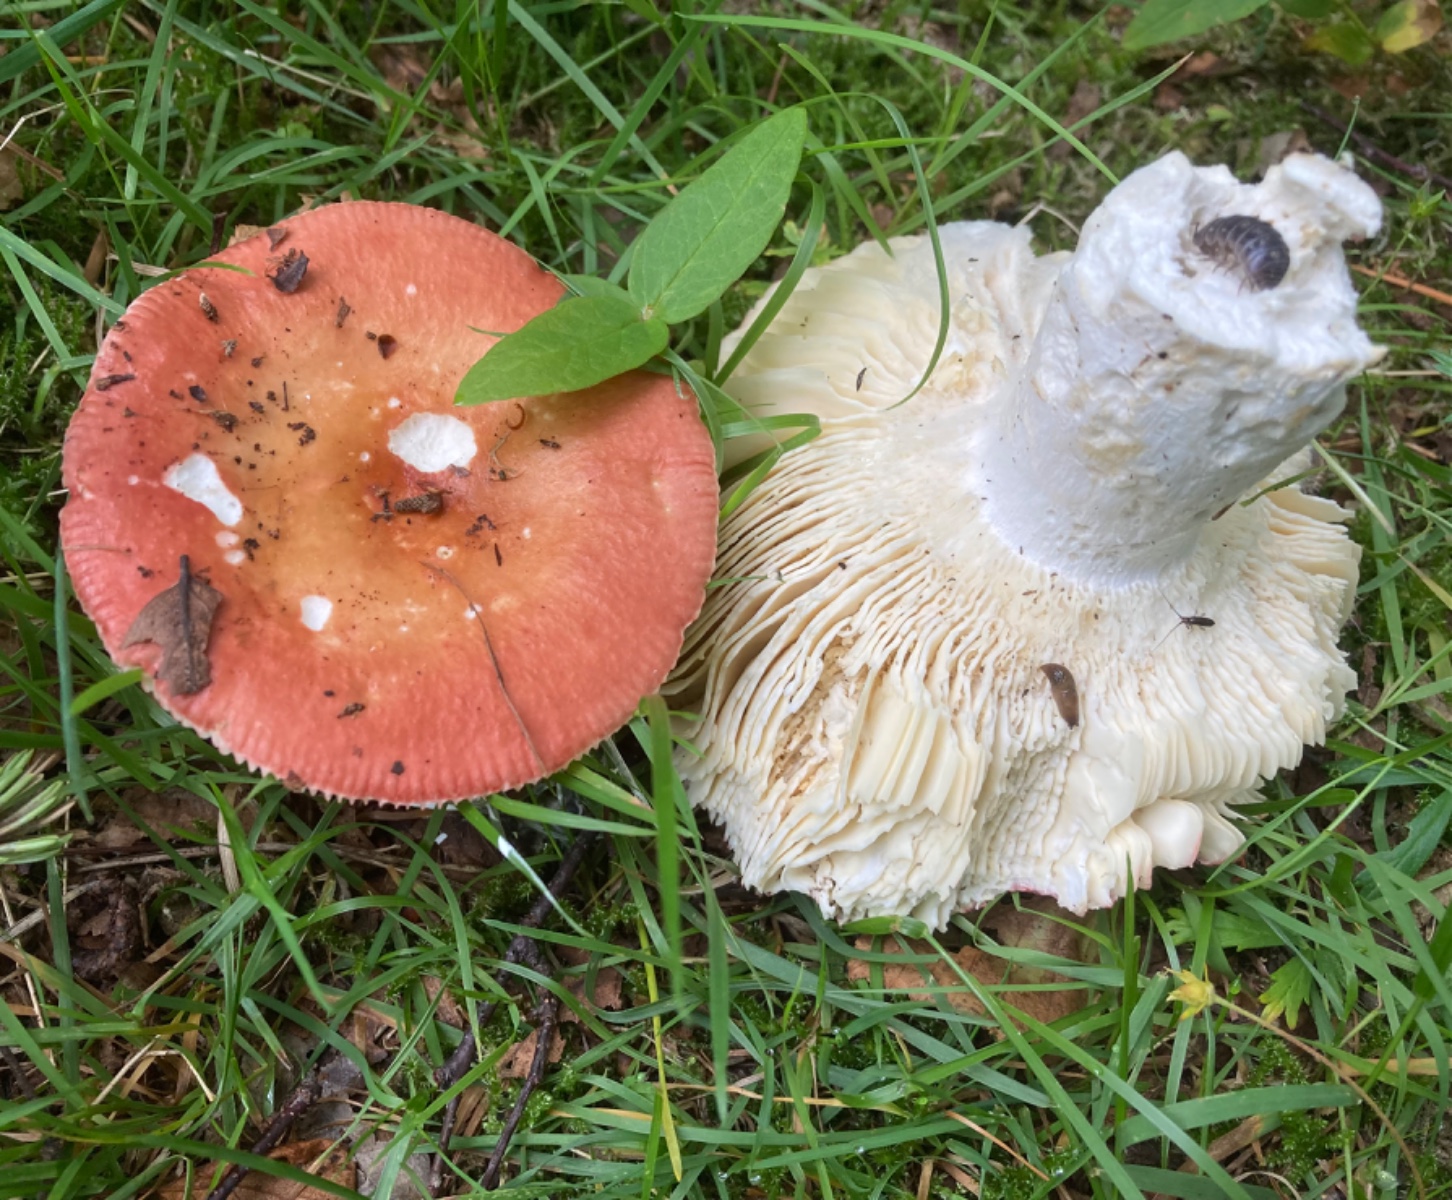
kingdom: Fungi
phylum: Basidiomycota
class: Agaricomycetes
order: Russulales
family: Russulaceae
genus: Russula
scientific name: Russula velenovskyi
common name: orangerød skørhat
